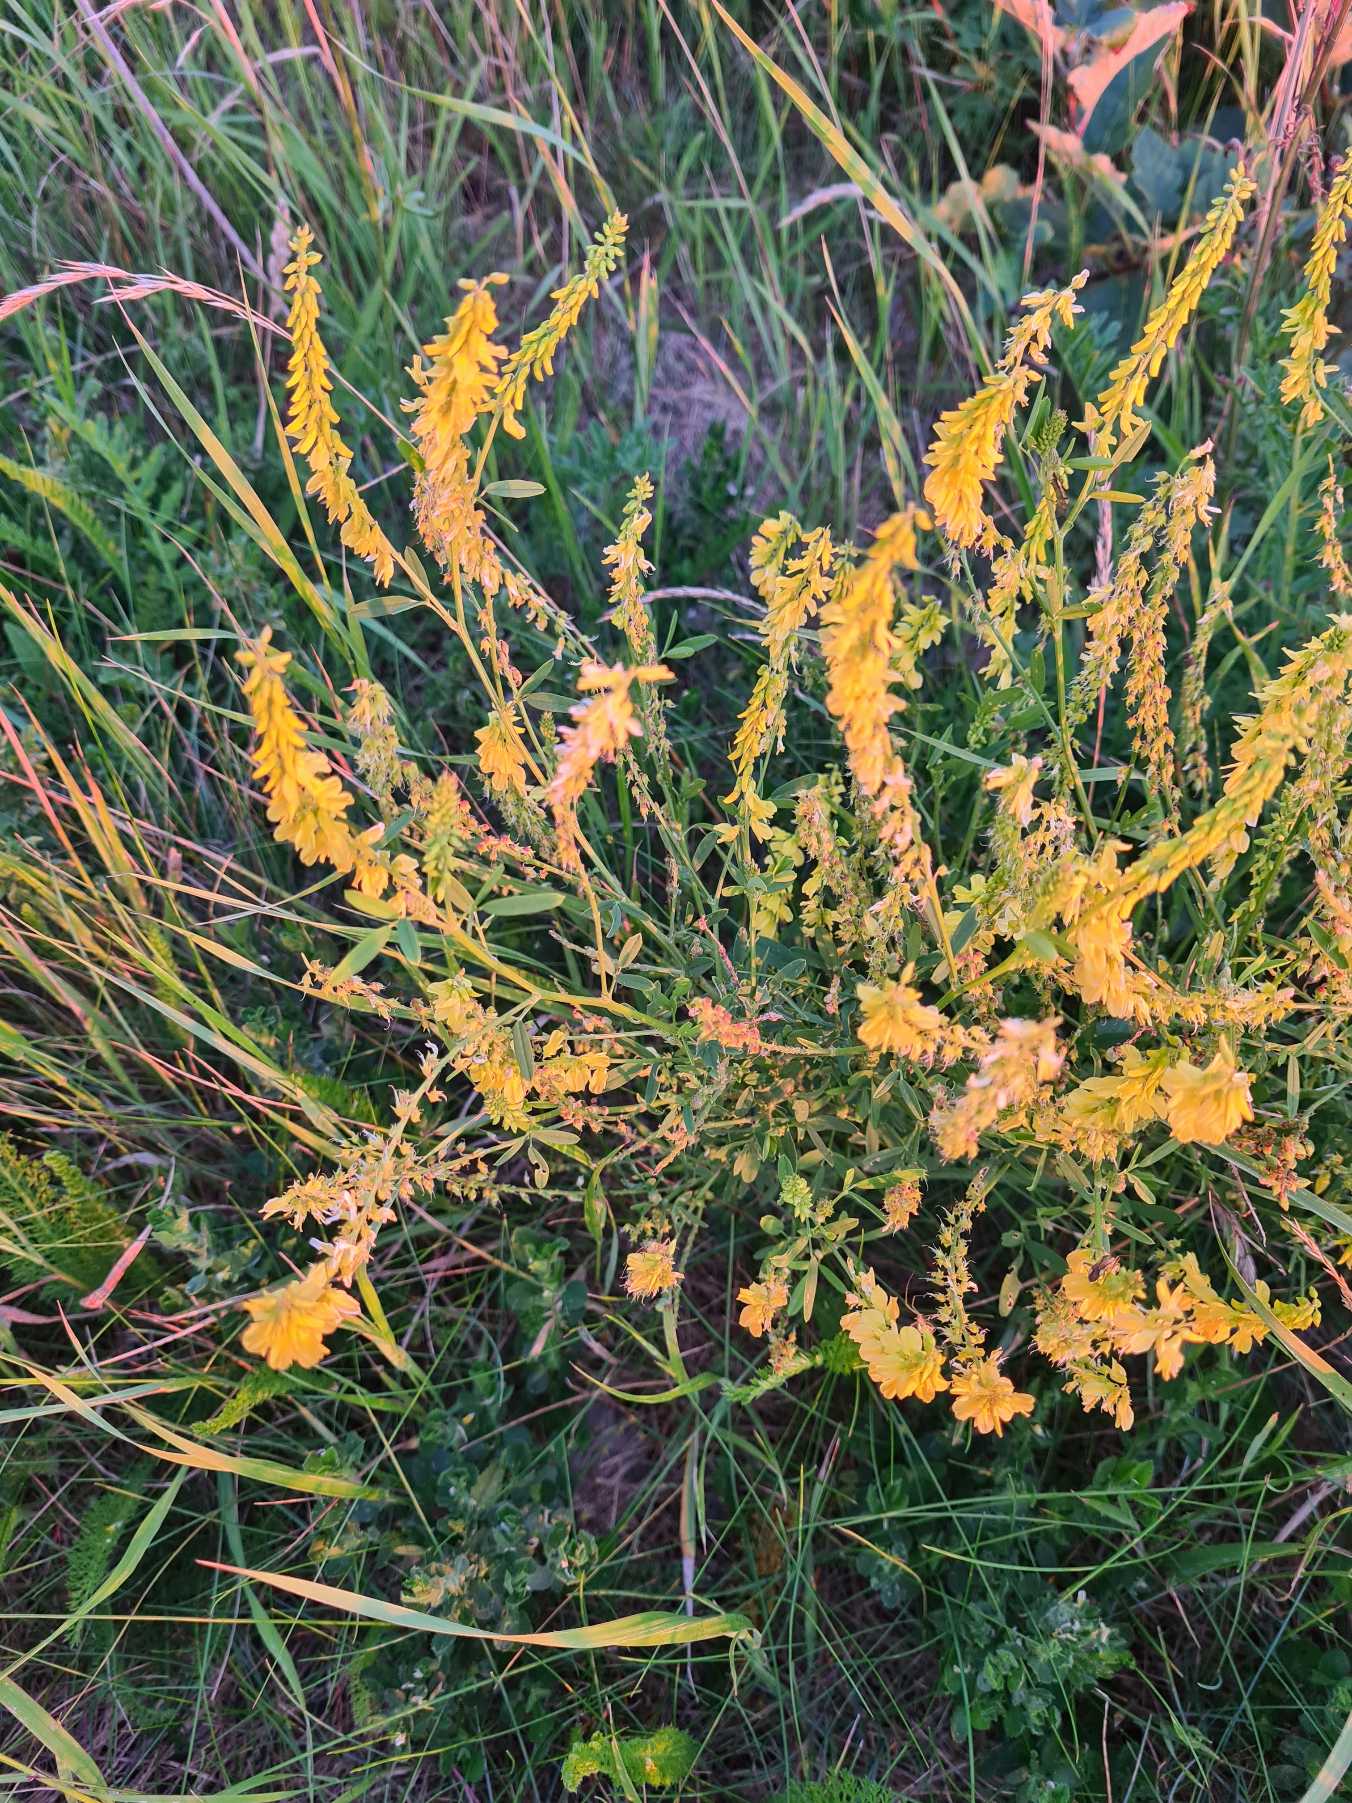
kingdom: Plantae
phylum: Tracheophyta
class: Magnoliopsida
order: Fabales
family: Fabaceae
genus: Melilotus
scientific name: Melilotus officinalis
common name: Mark-stenkløver
